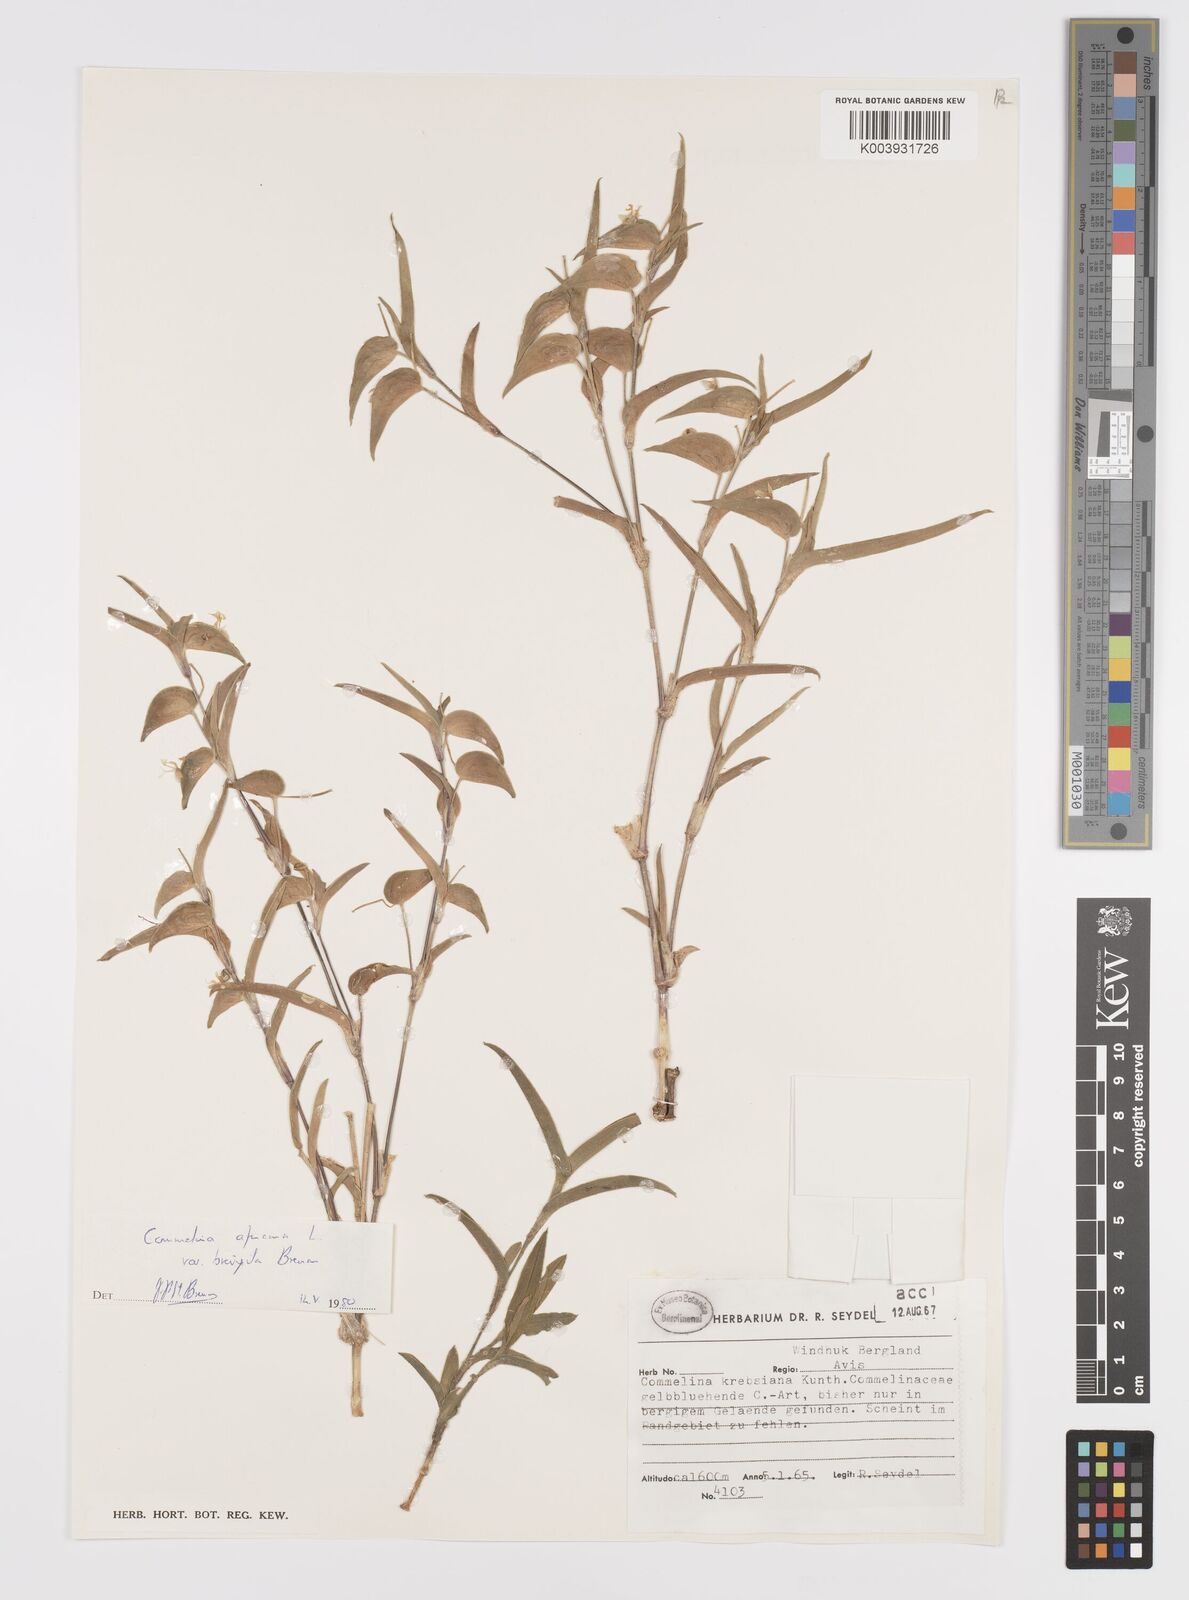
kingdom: Plantae
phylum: Tracheophyta
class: Liliopsida
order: Commelinales
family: Commelinaceae
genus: Commelina
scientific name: Commelina africana
